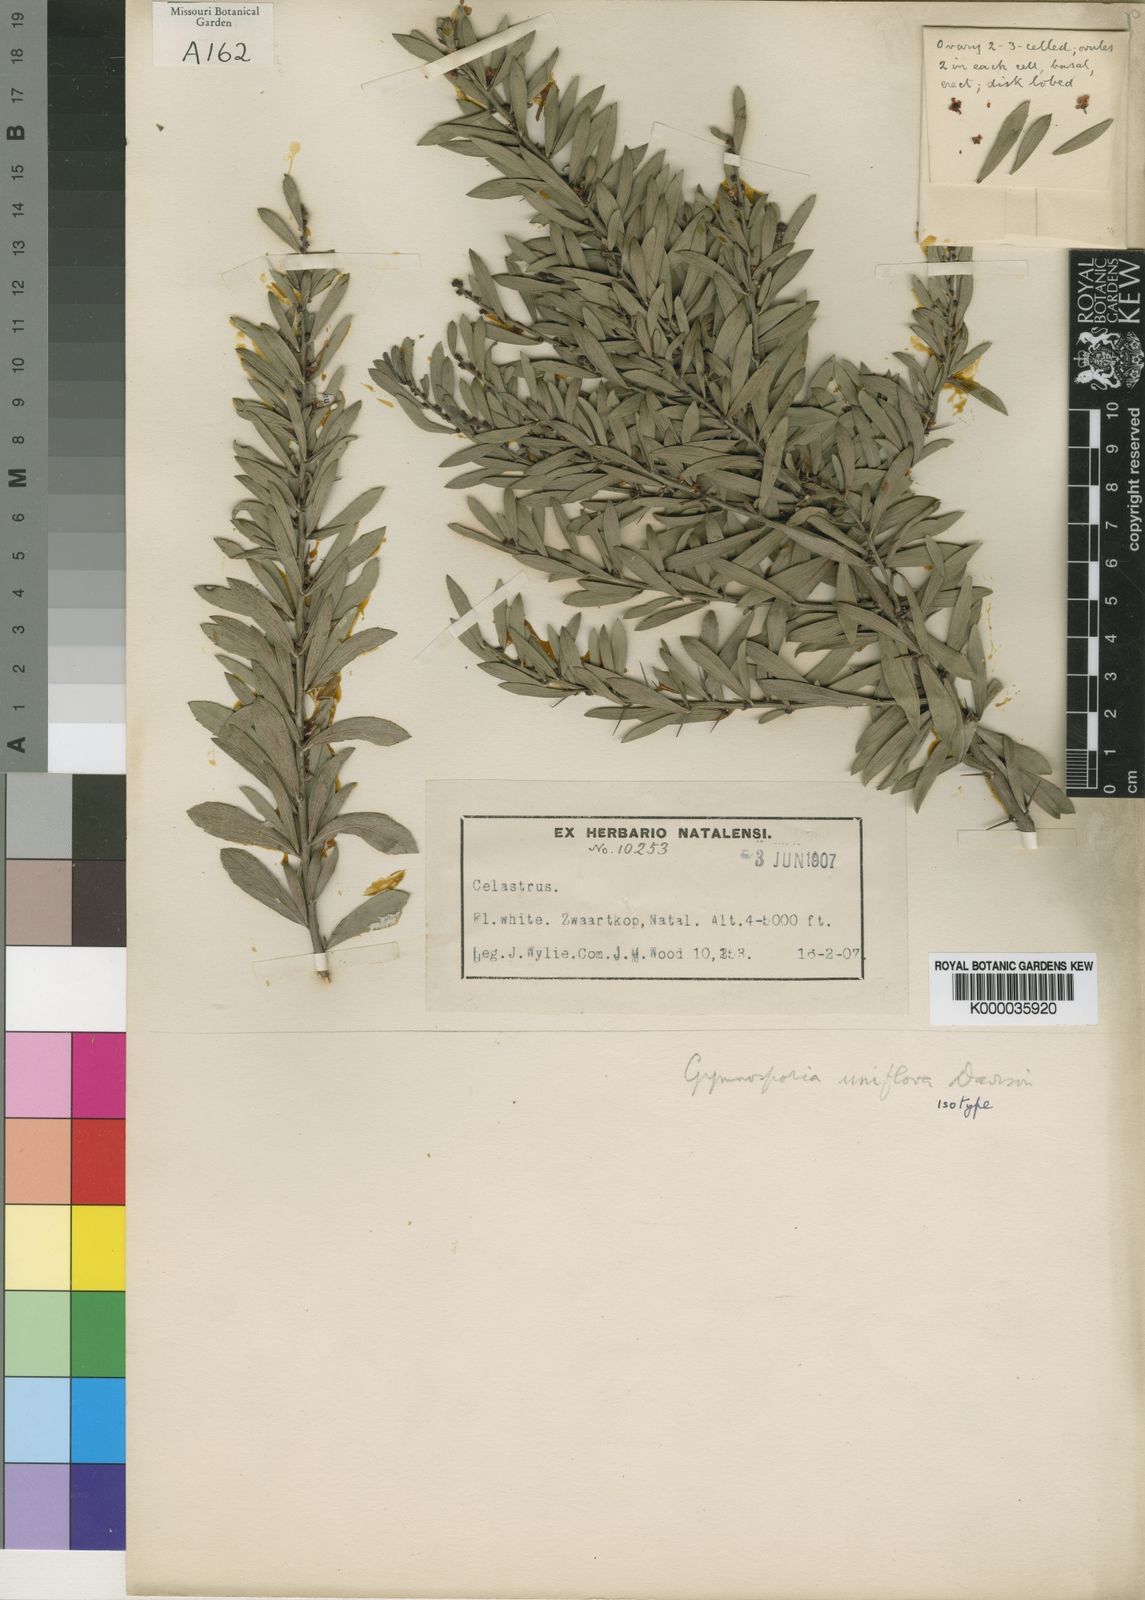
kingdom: Plantae
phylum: Tracheophyta
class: Magnoliopsida
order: Celastrales
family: Celastraceae
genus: Maytenus
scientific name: Maytenus
